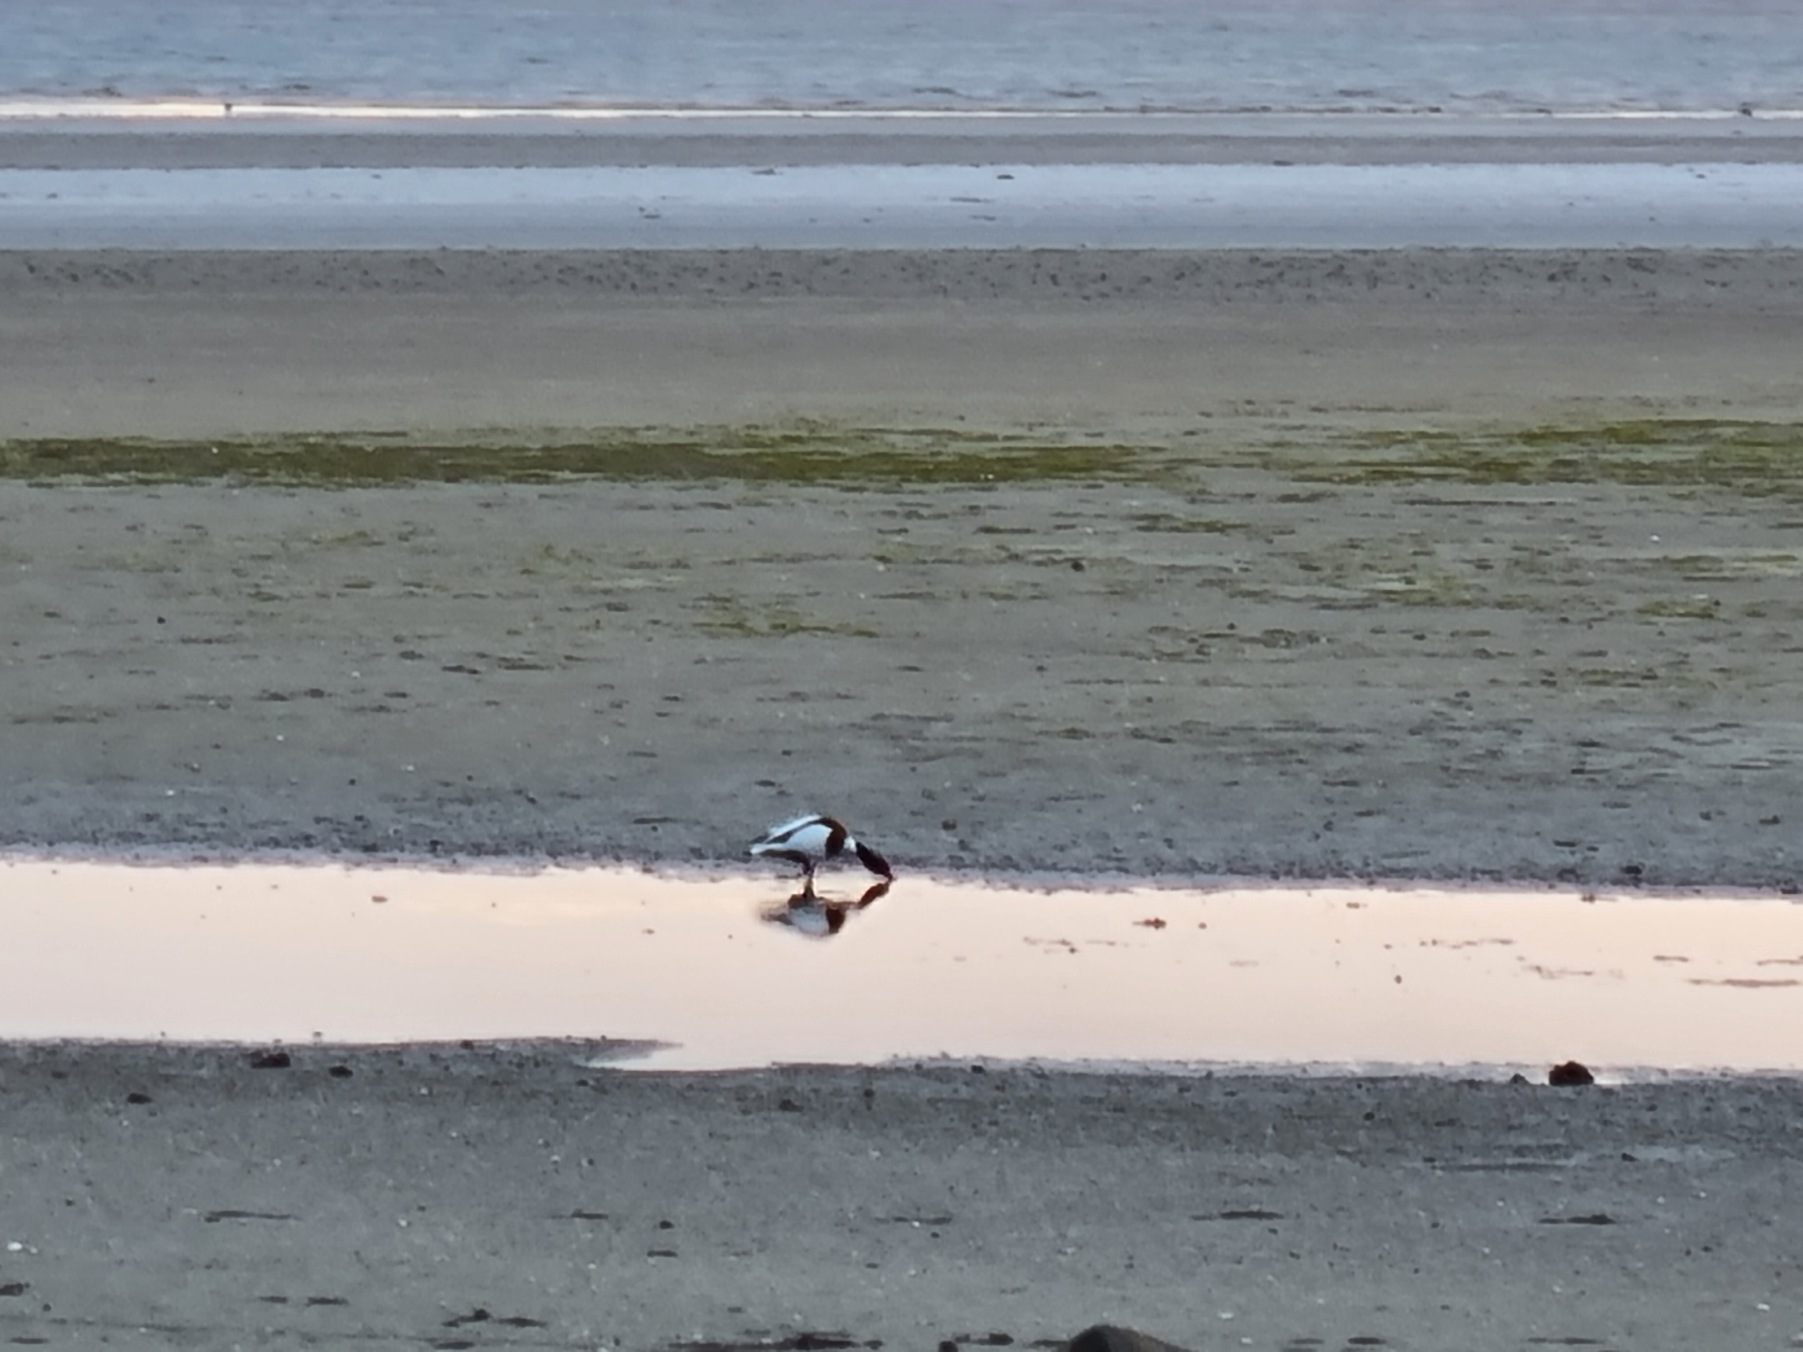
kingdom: Animalia
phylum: Chordata
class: Aves
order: Anseriformes
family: Anatidae
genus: Tadorna
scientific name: Tadorna tadorna
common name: Gravand
